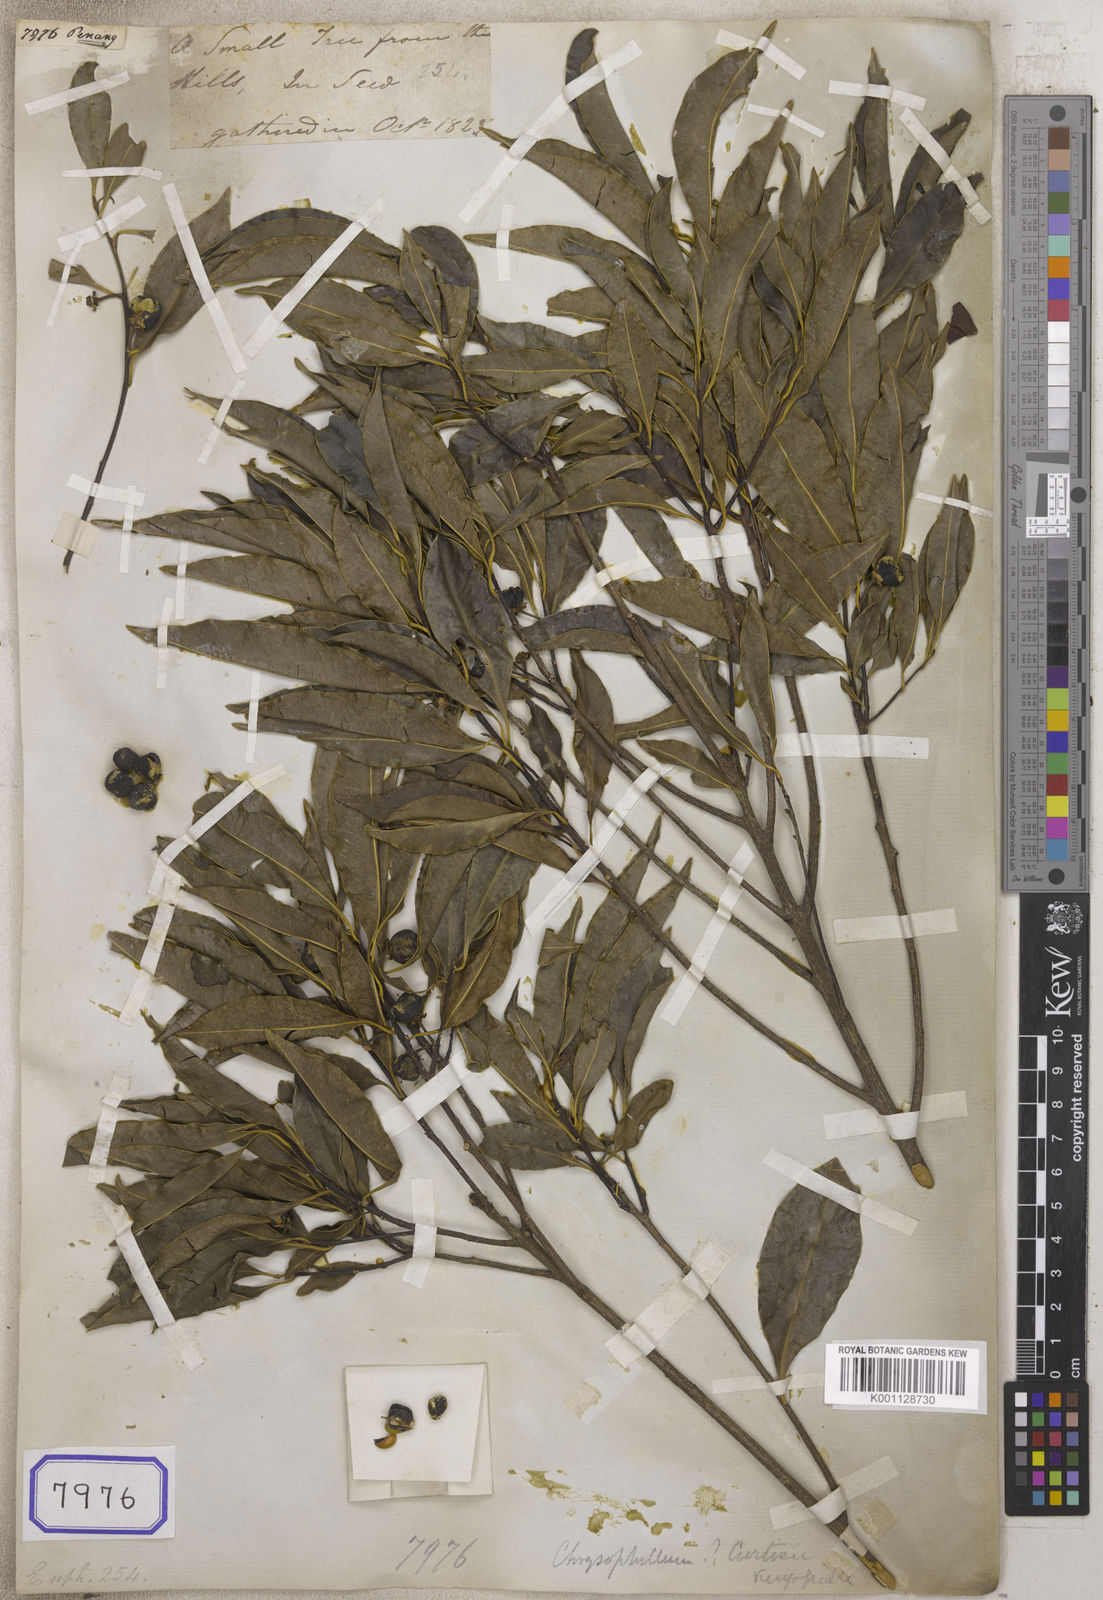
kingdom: Plantae
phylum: Tracheophyta
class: Magnoliopsida
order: Malpighiales
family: Euphorbiaceae
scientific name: Euphorbiaceae
